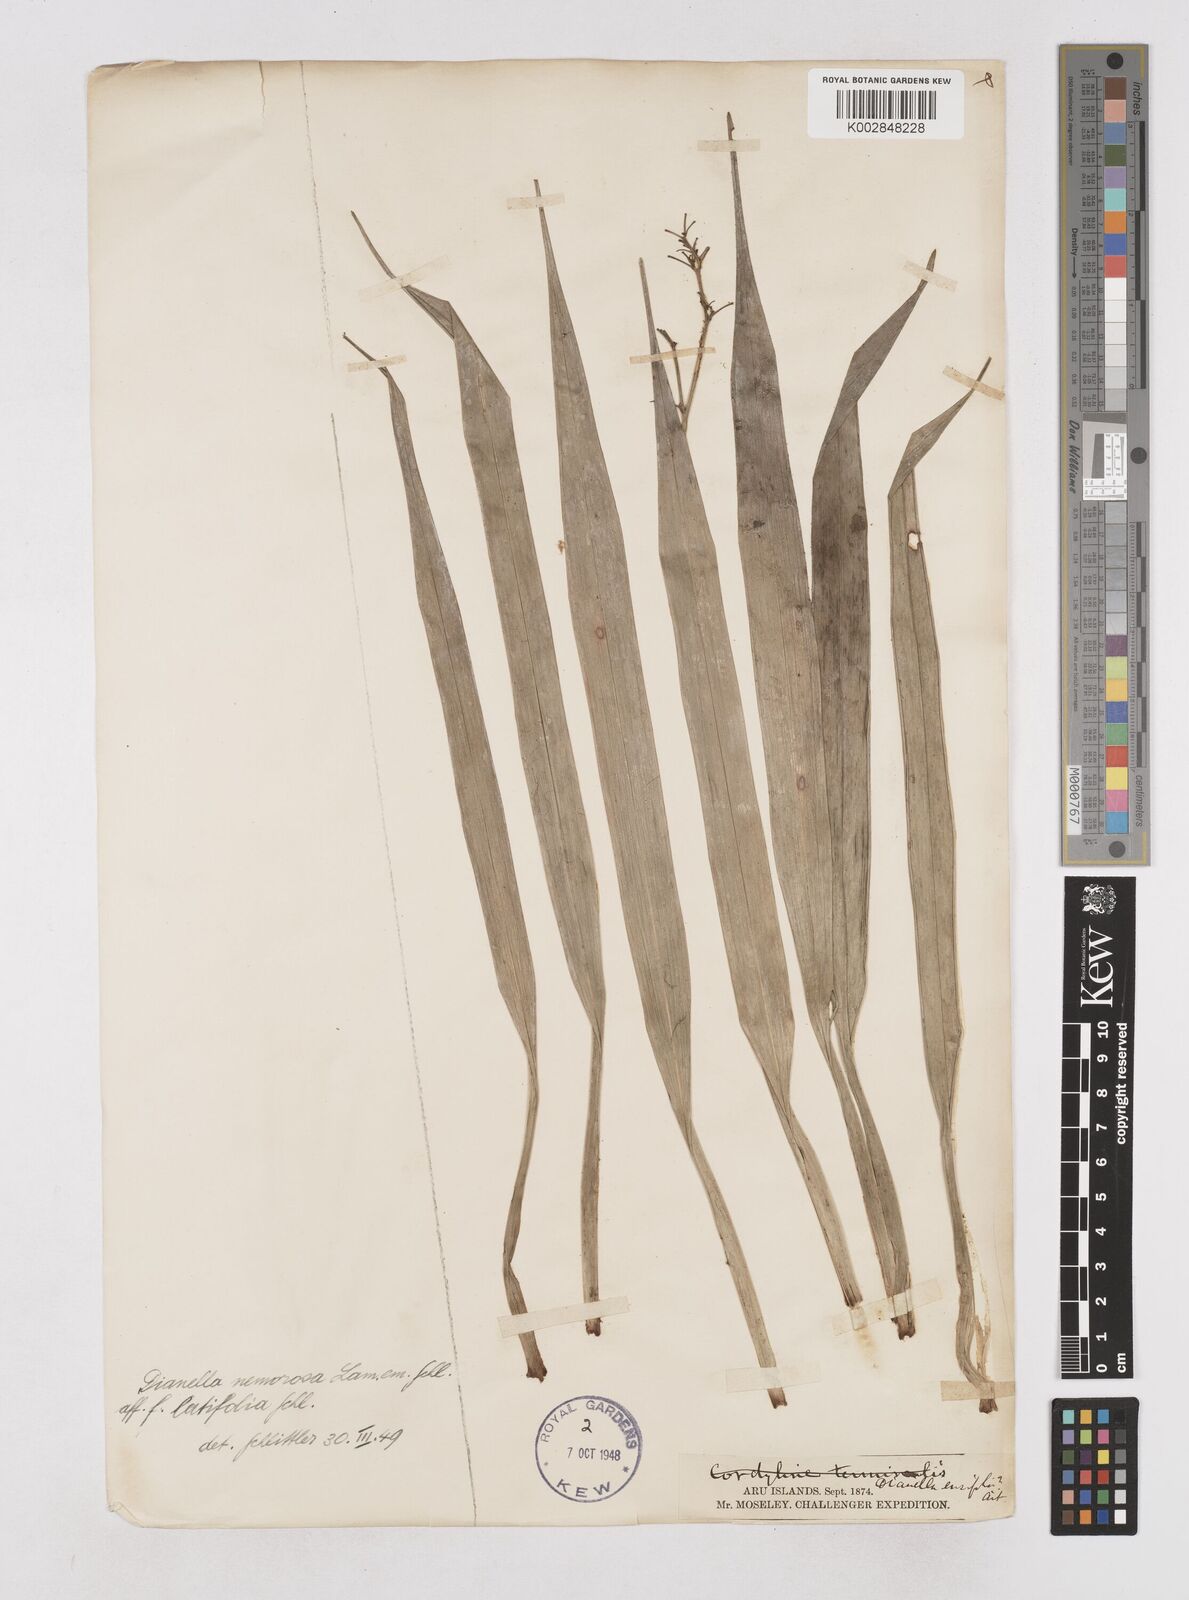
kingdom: Plantae
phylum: Tracheophyta
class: Liliopsida
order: Asparagales
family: Asphodelaceae
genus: Dianella
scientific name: Dianella ensifolia
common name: New zealand lilyplant
